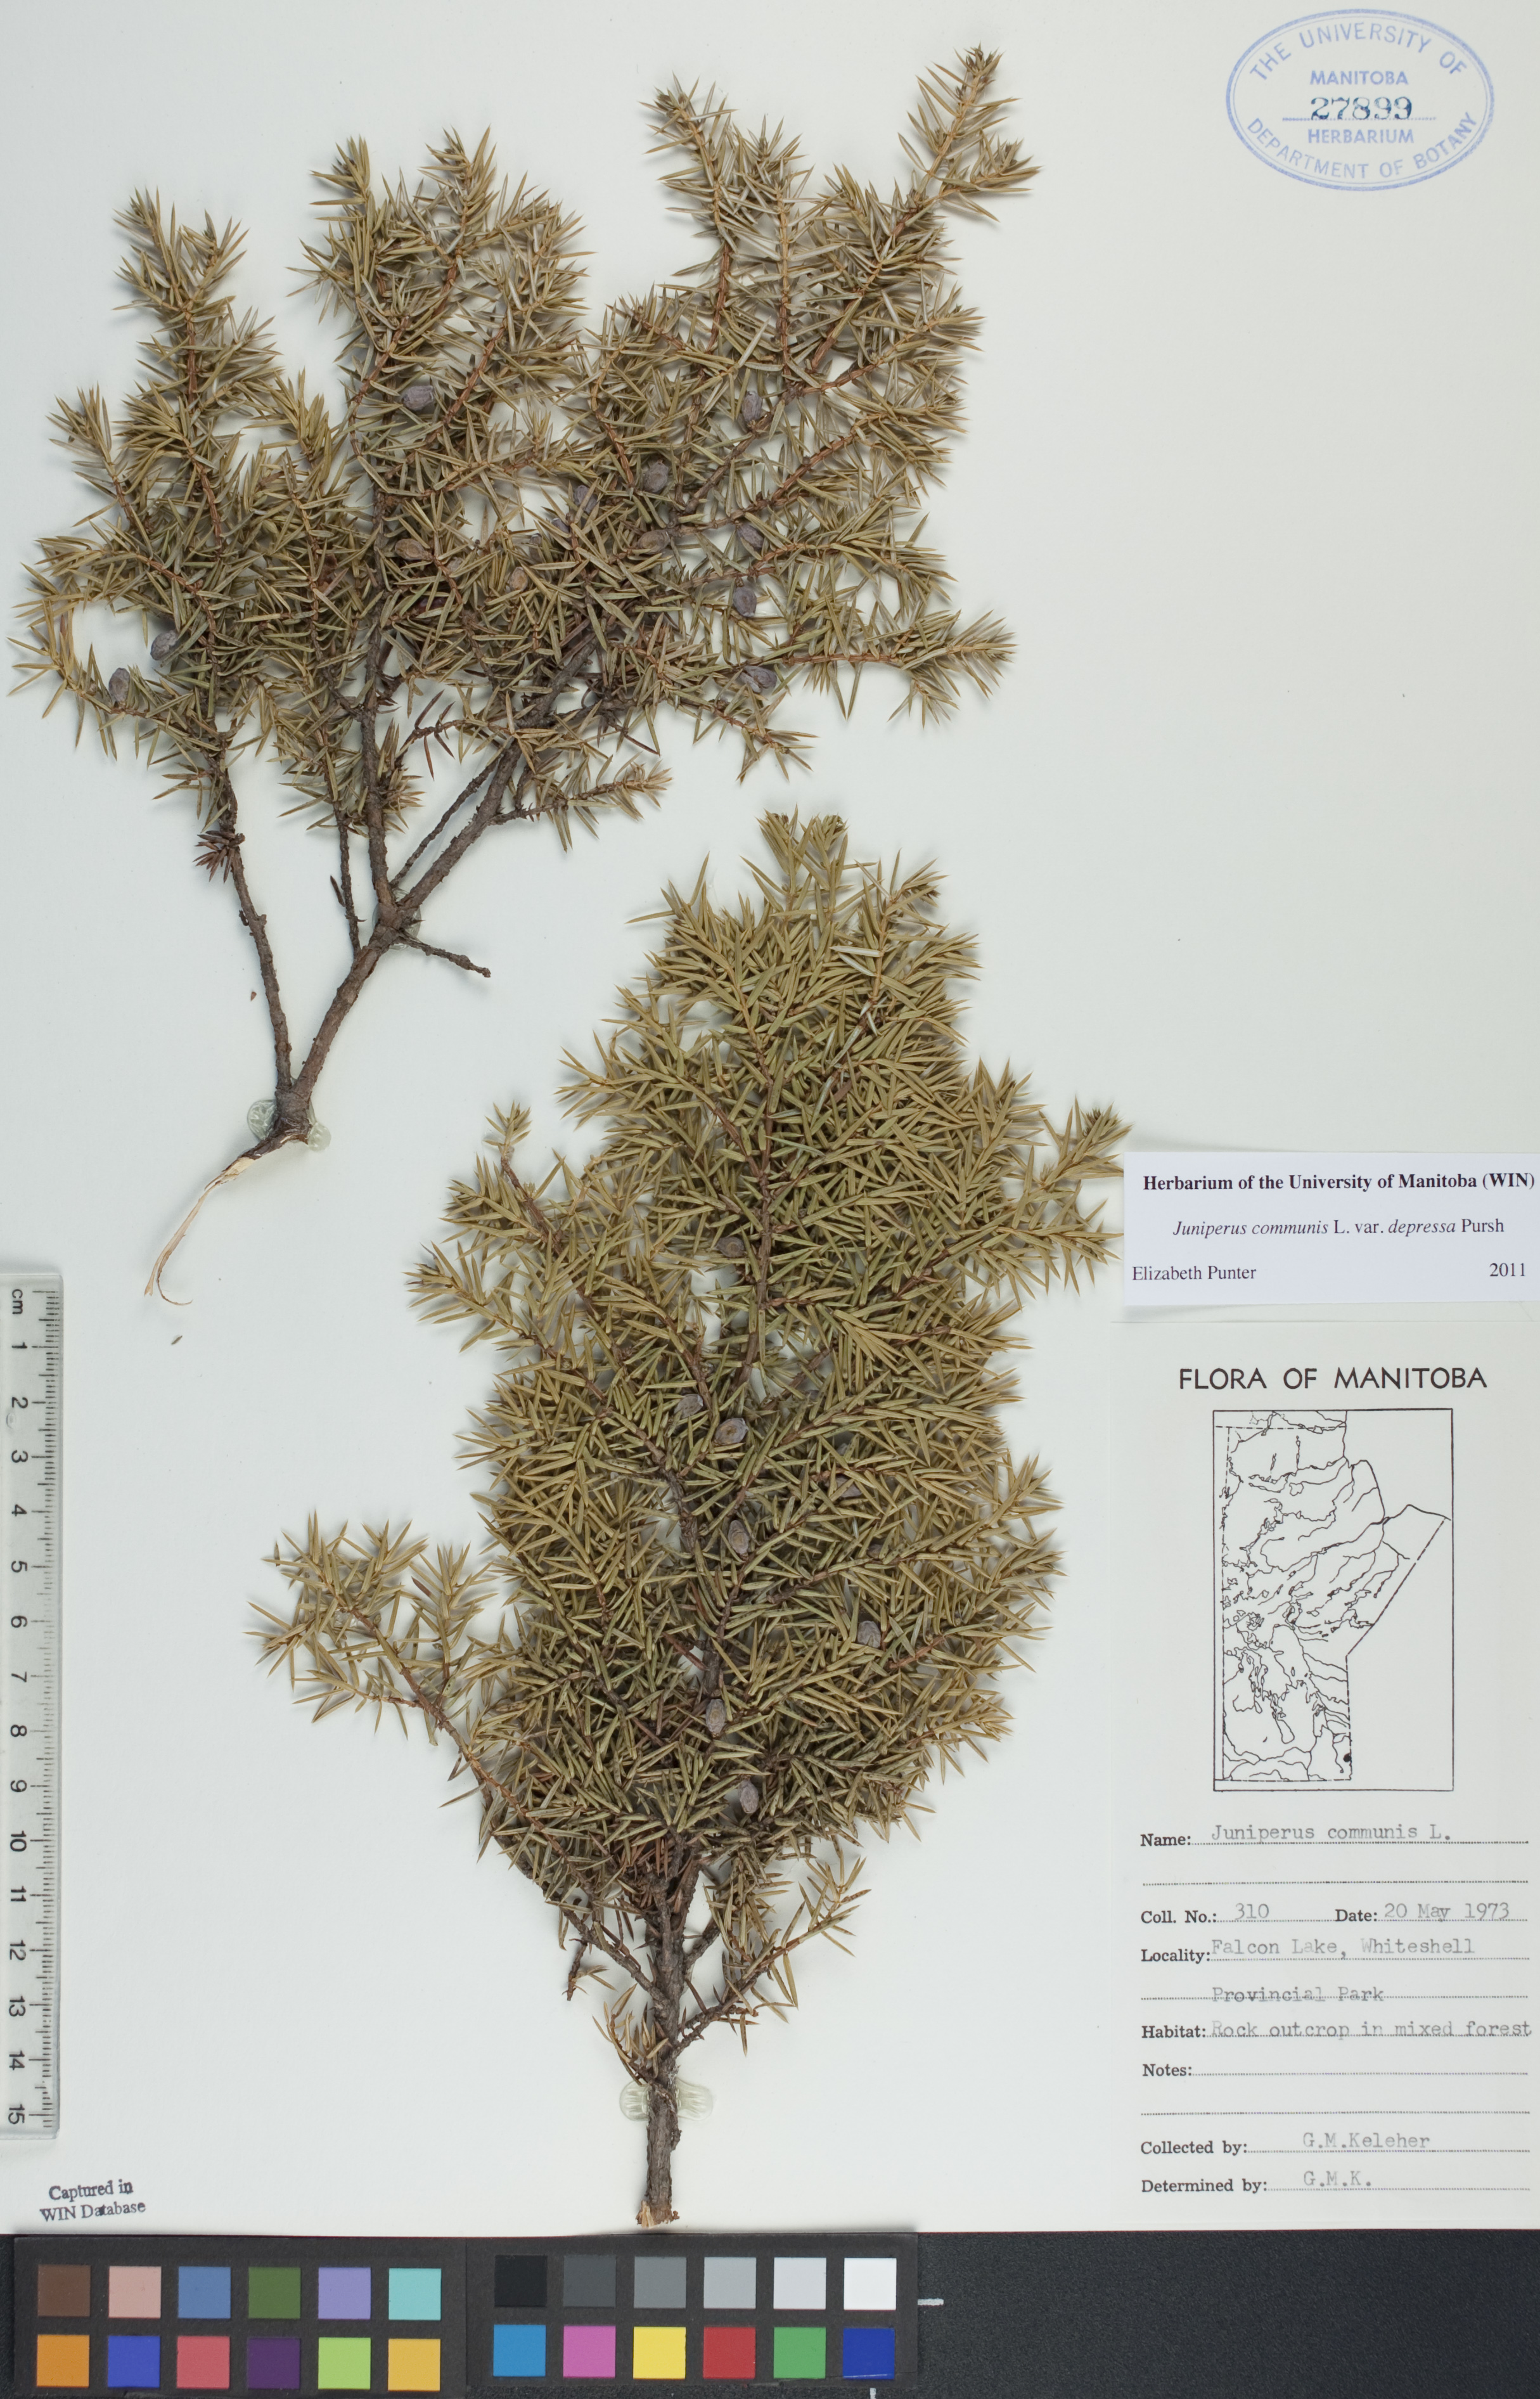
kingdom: Plantae
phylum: Tracheophyta
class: Pinopsida
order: Pinales
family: Cupressaceae
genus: Juniperus
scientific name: Juniperus communis
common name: Common juniper
